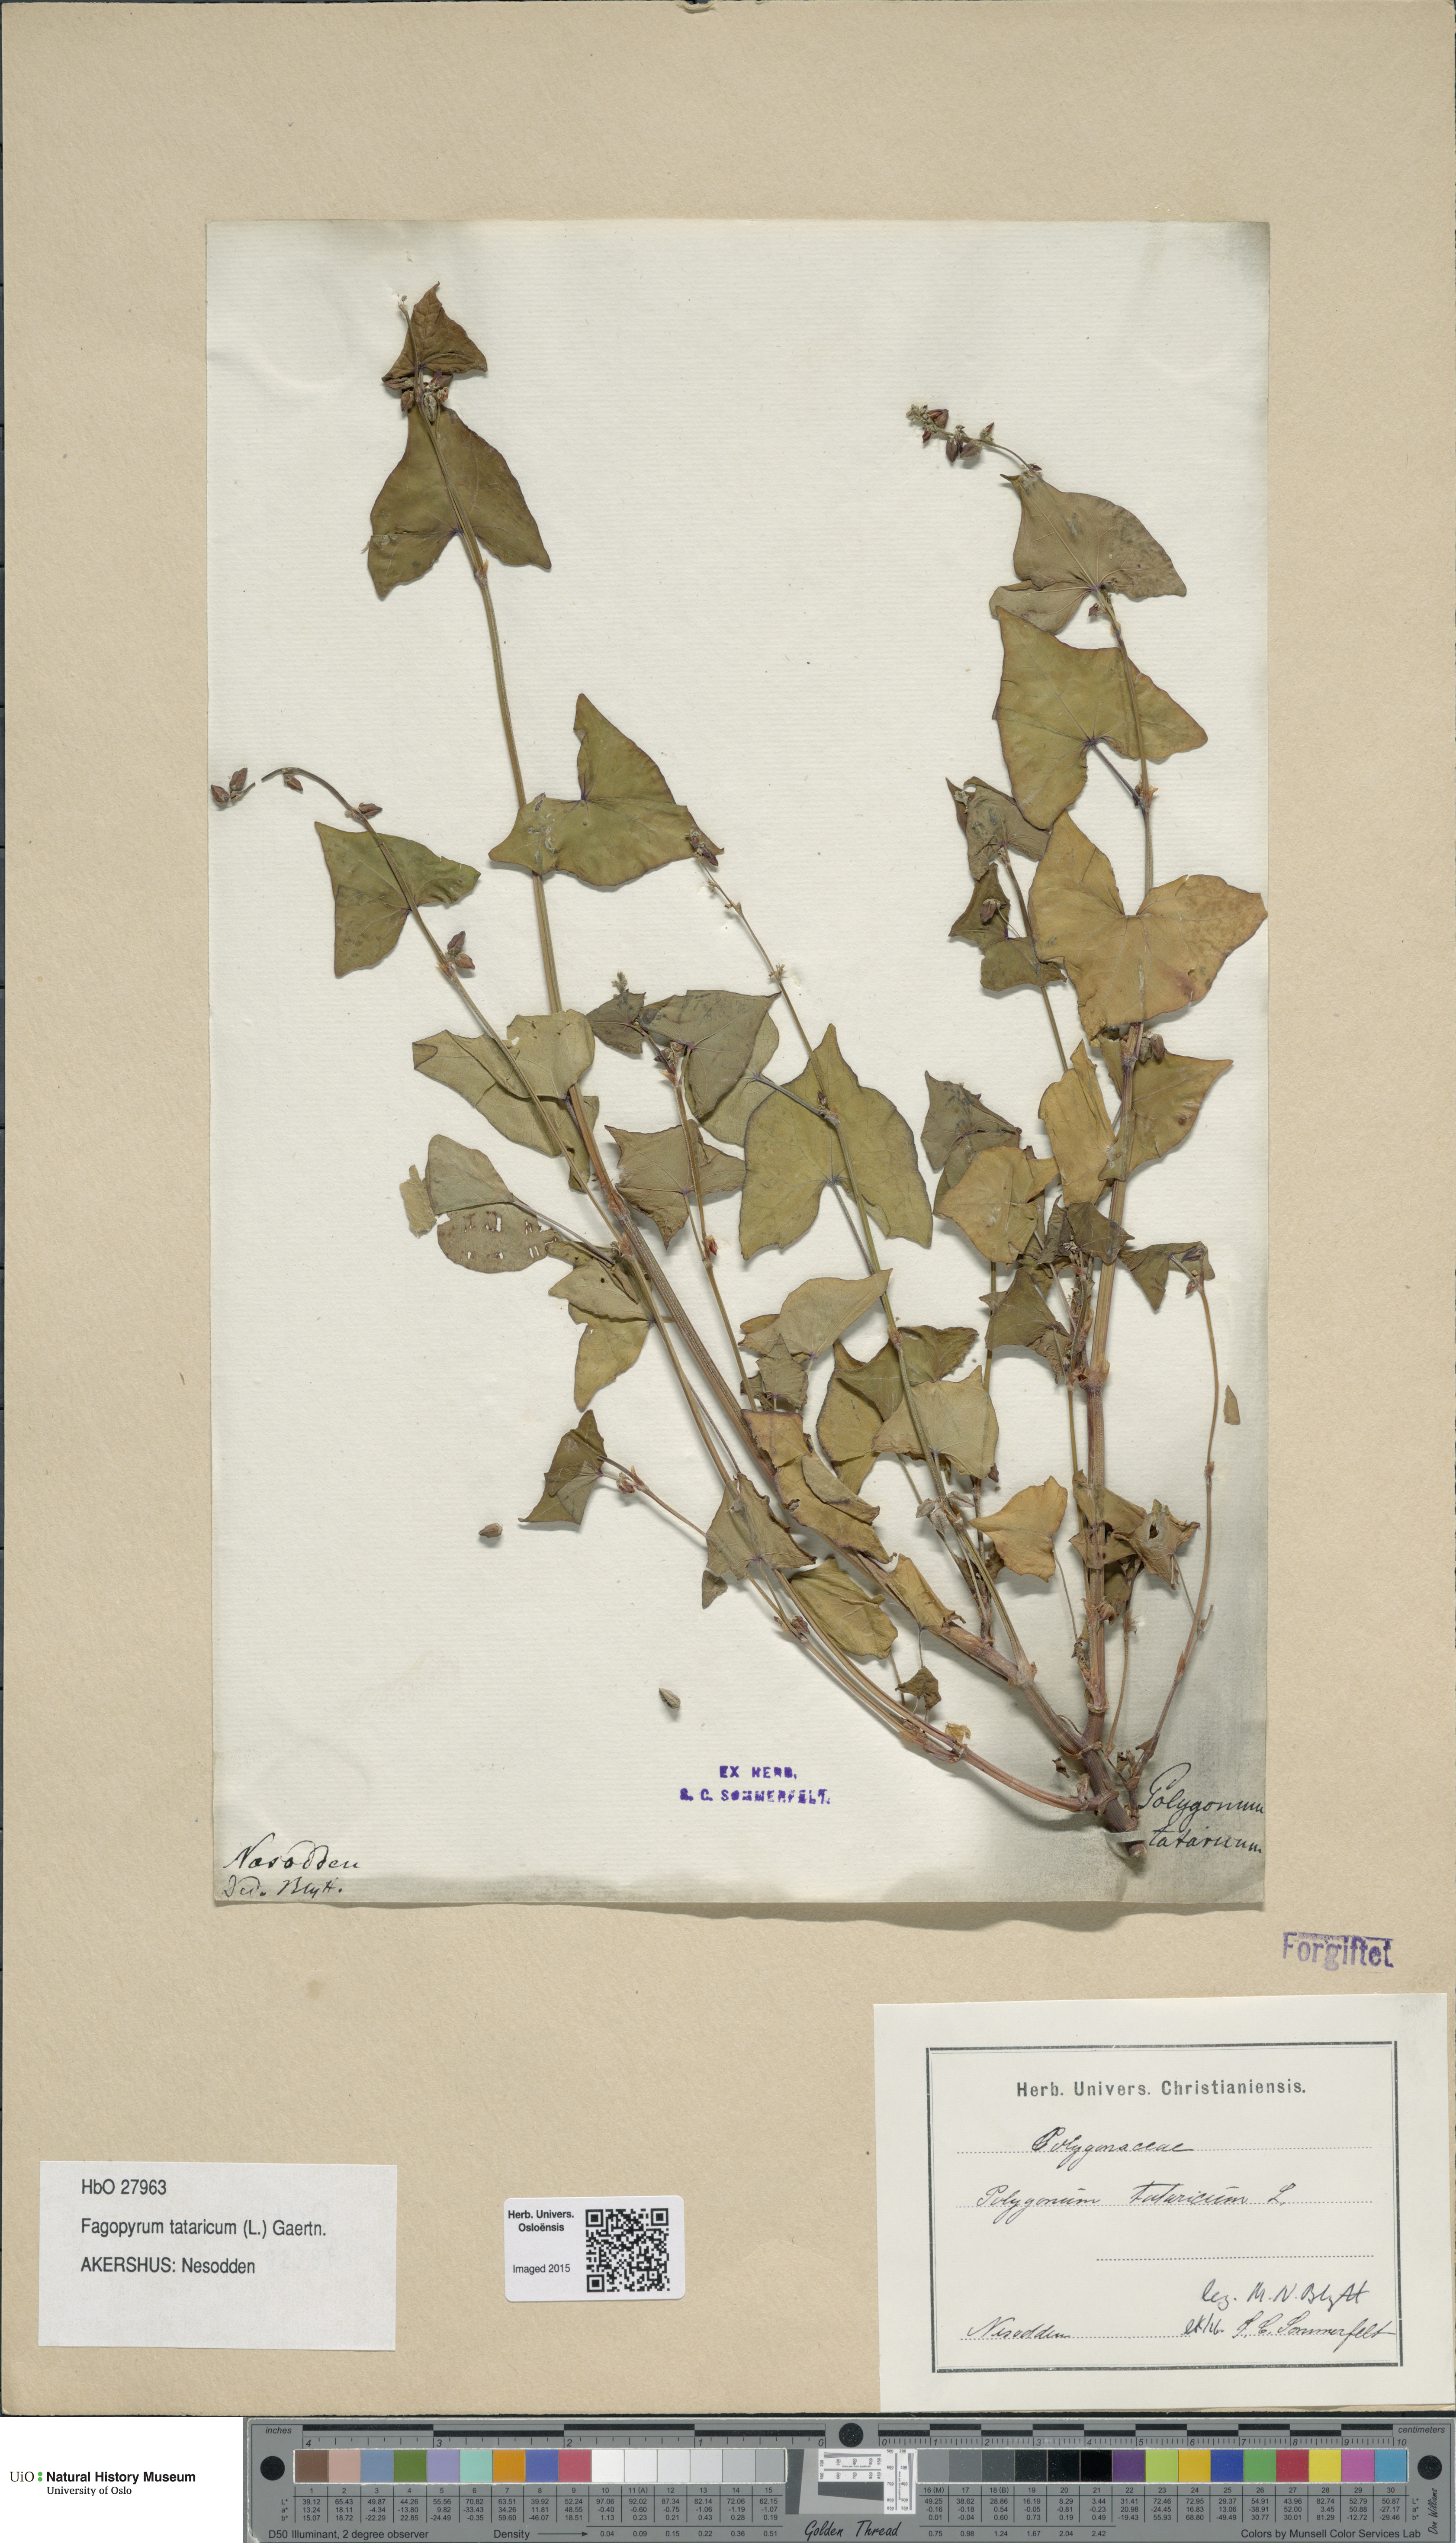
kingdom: Plantae
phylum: Tracheophyta
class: Magnoliopsida
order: Caryophyllales
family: Polygonaceae
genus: Fagopyrum
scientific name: Fagopyrum tataricum
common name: Green buckwheat
